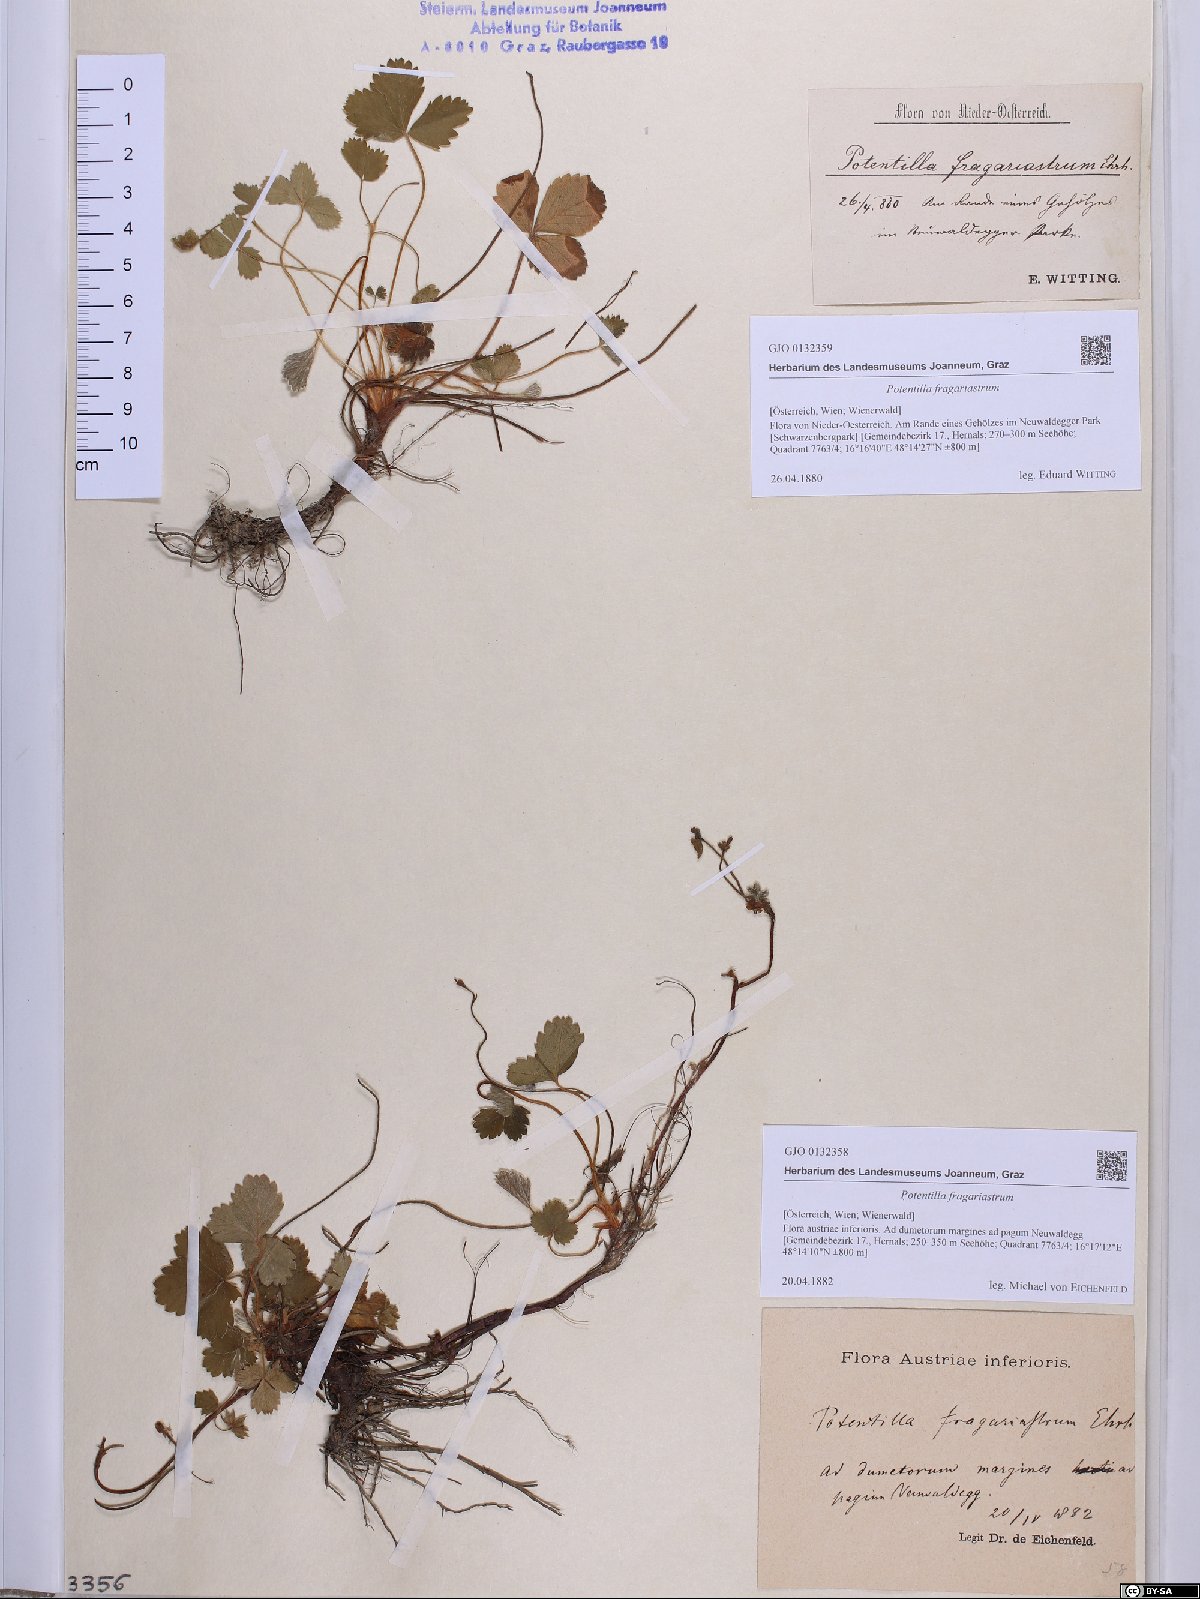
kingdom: Plantae
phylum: Tracheophyta
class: Magnoliopsida
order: Rosales
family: Rosaceae
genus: Potentilla
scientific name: Potentilla sterilis
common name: Barren strawberry
